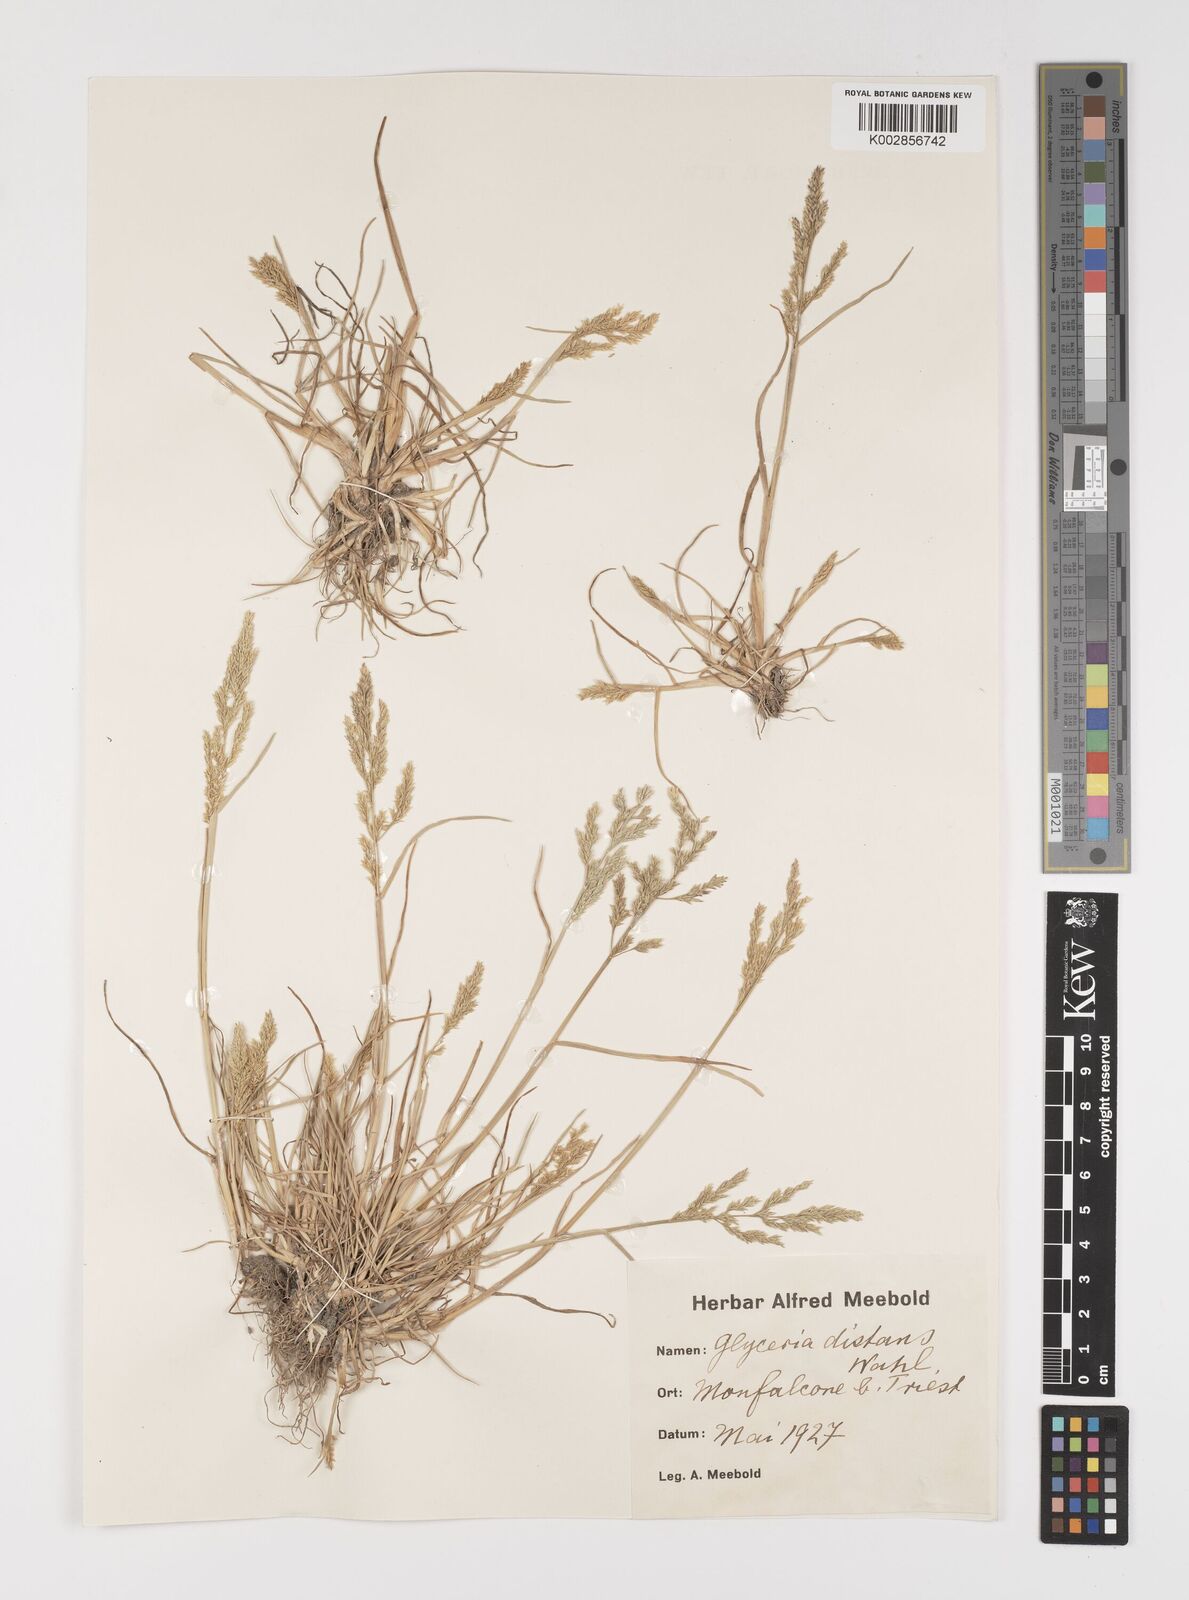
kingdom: Plantae
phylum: Tracheophyta
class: Liliopsida
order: Poales
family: Poaceae
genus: Puccinellia
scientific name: Puccinellia
